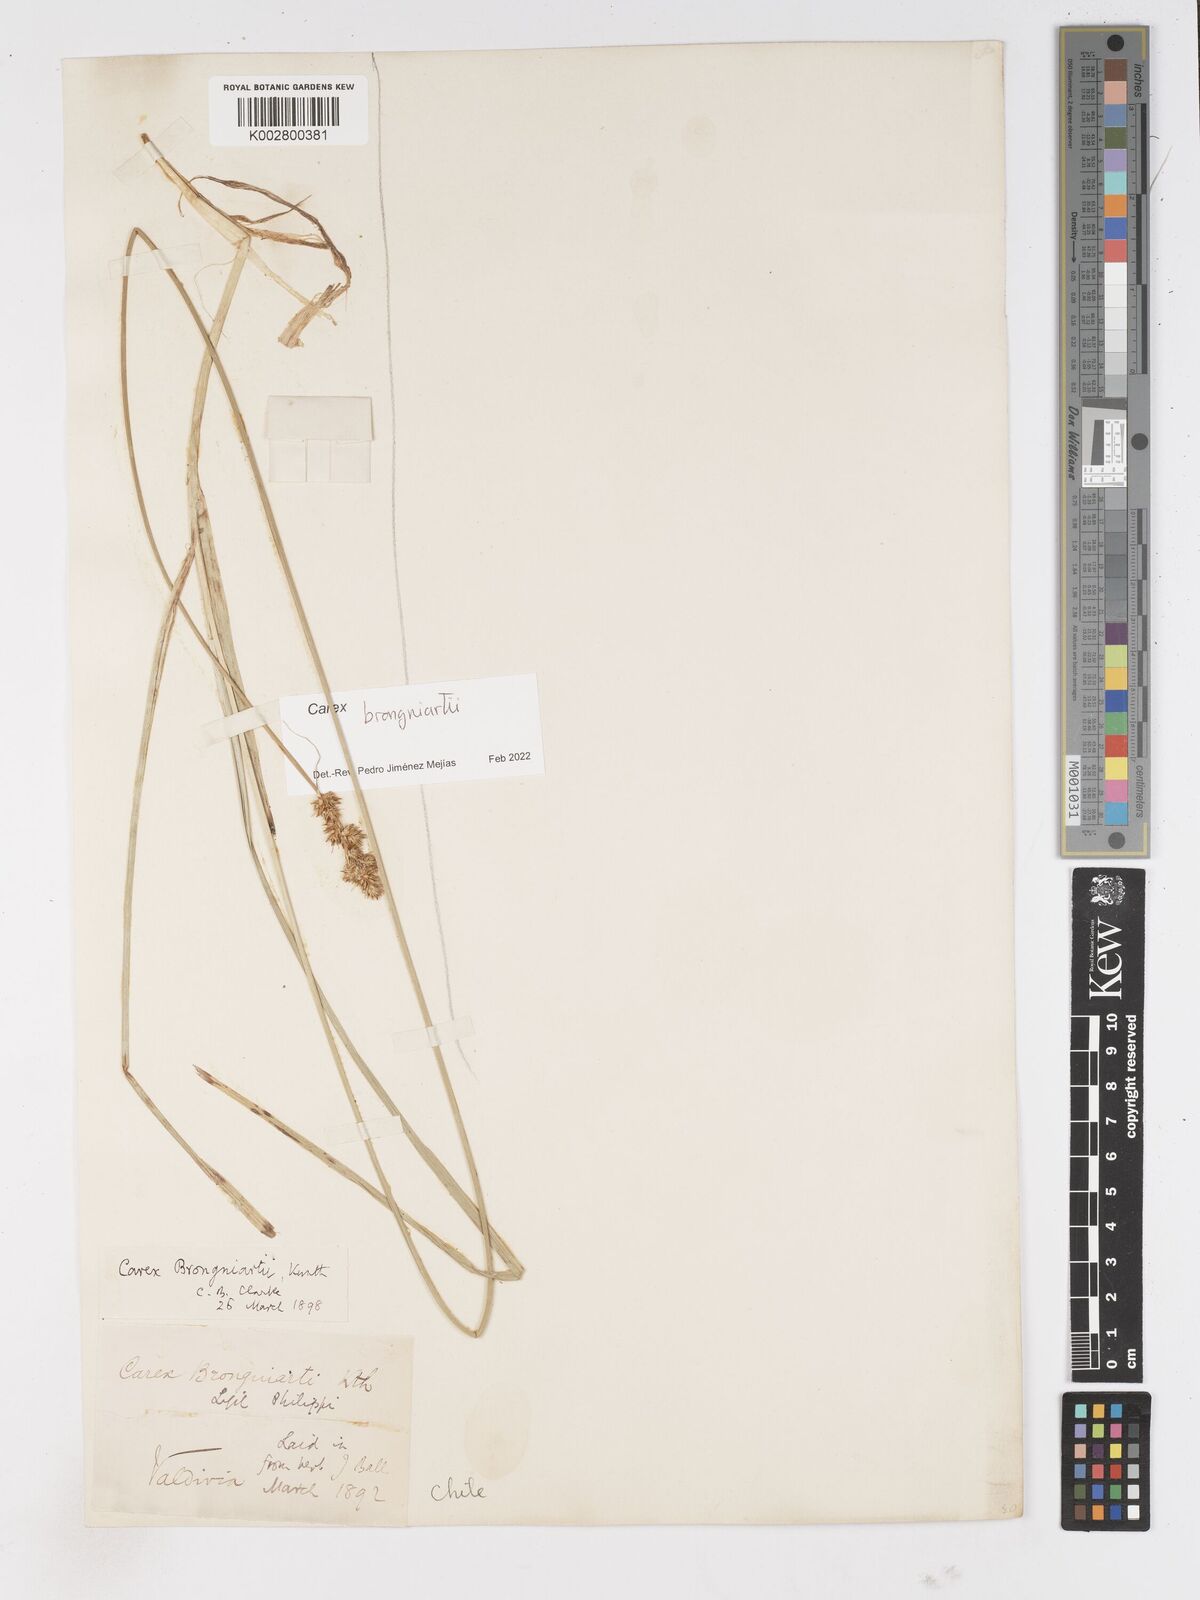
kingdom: Plantae
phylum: Tracheophyta
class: Liliopsida
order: Poales
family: Cyperaceae
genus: Carex
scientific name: Carex brongniartii
